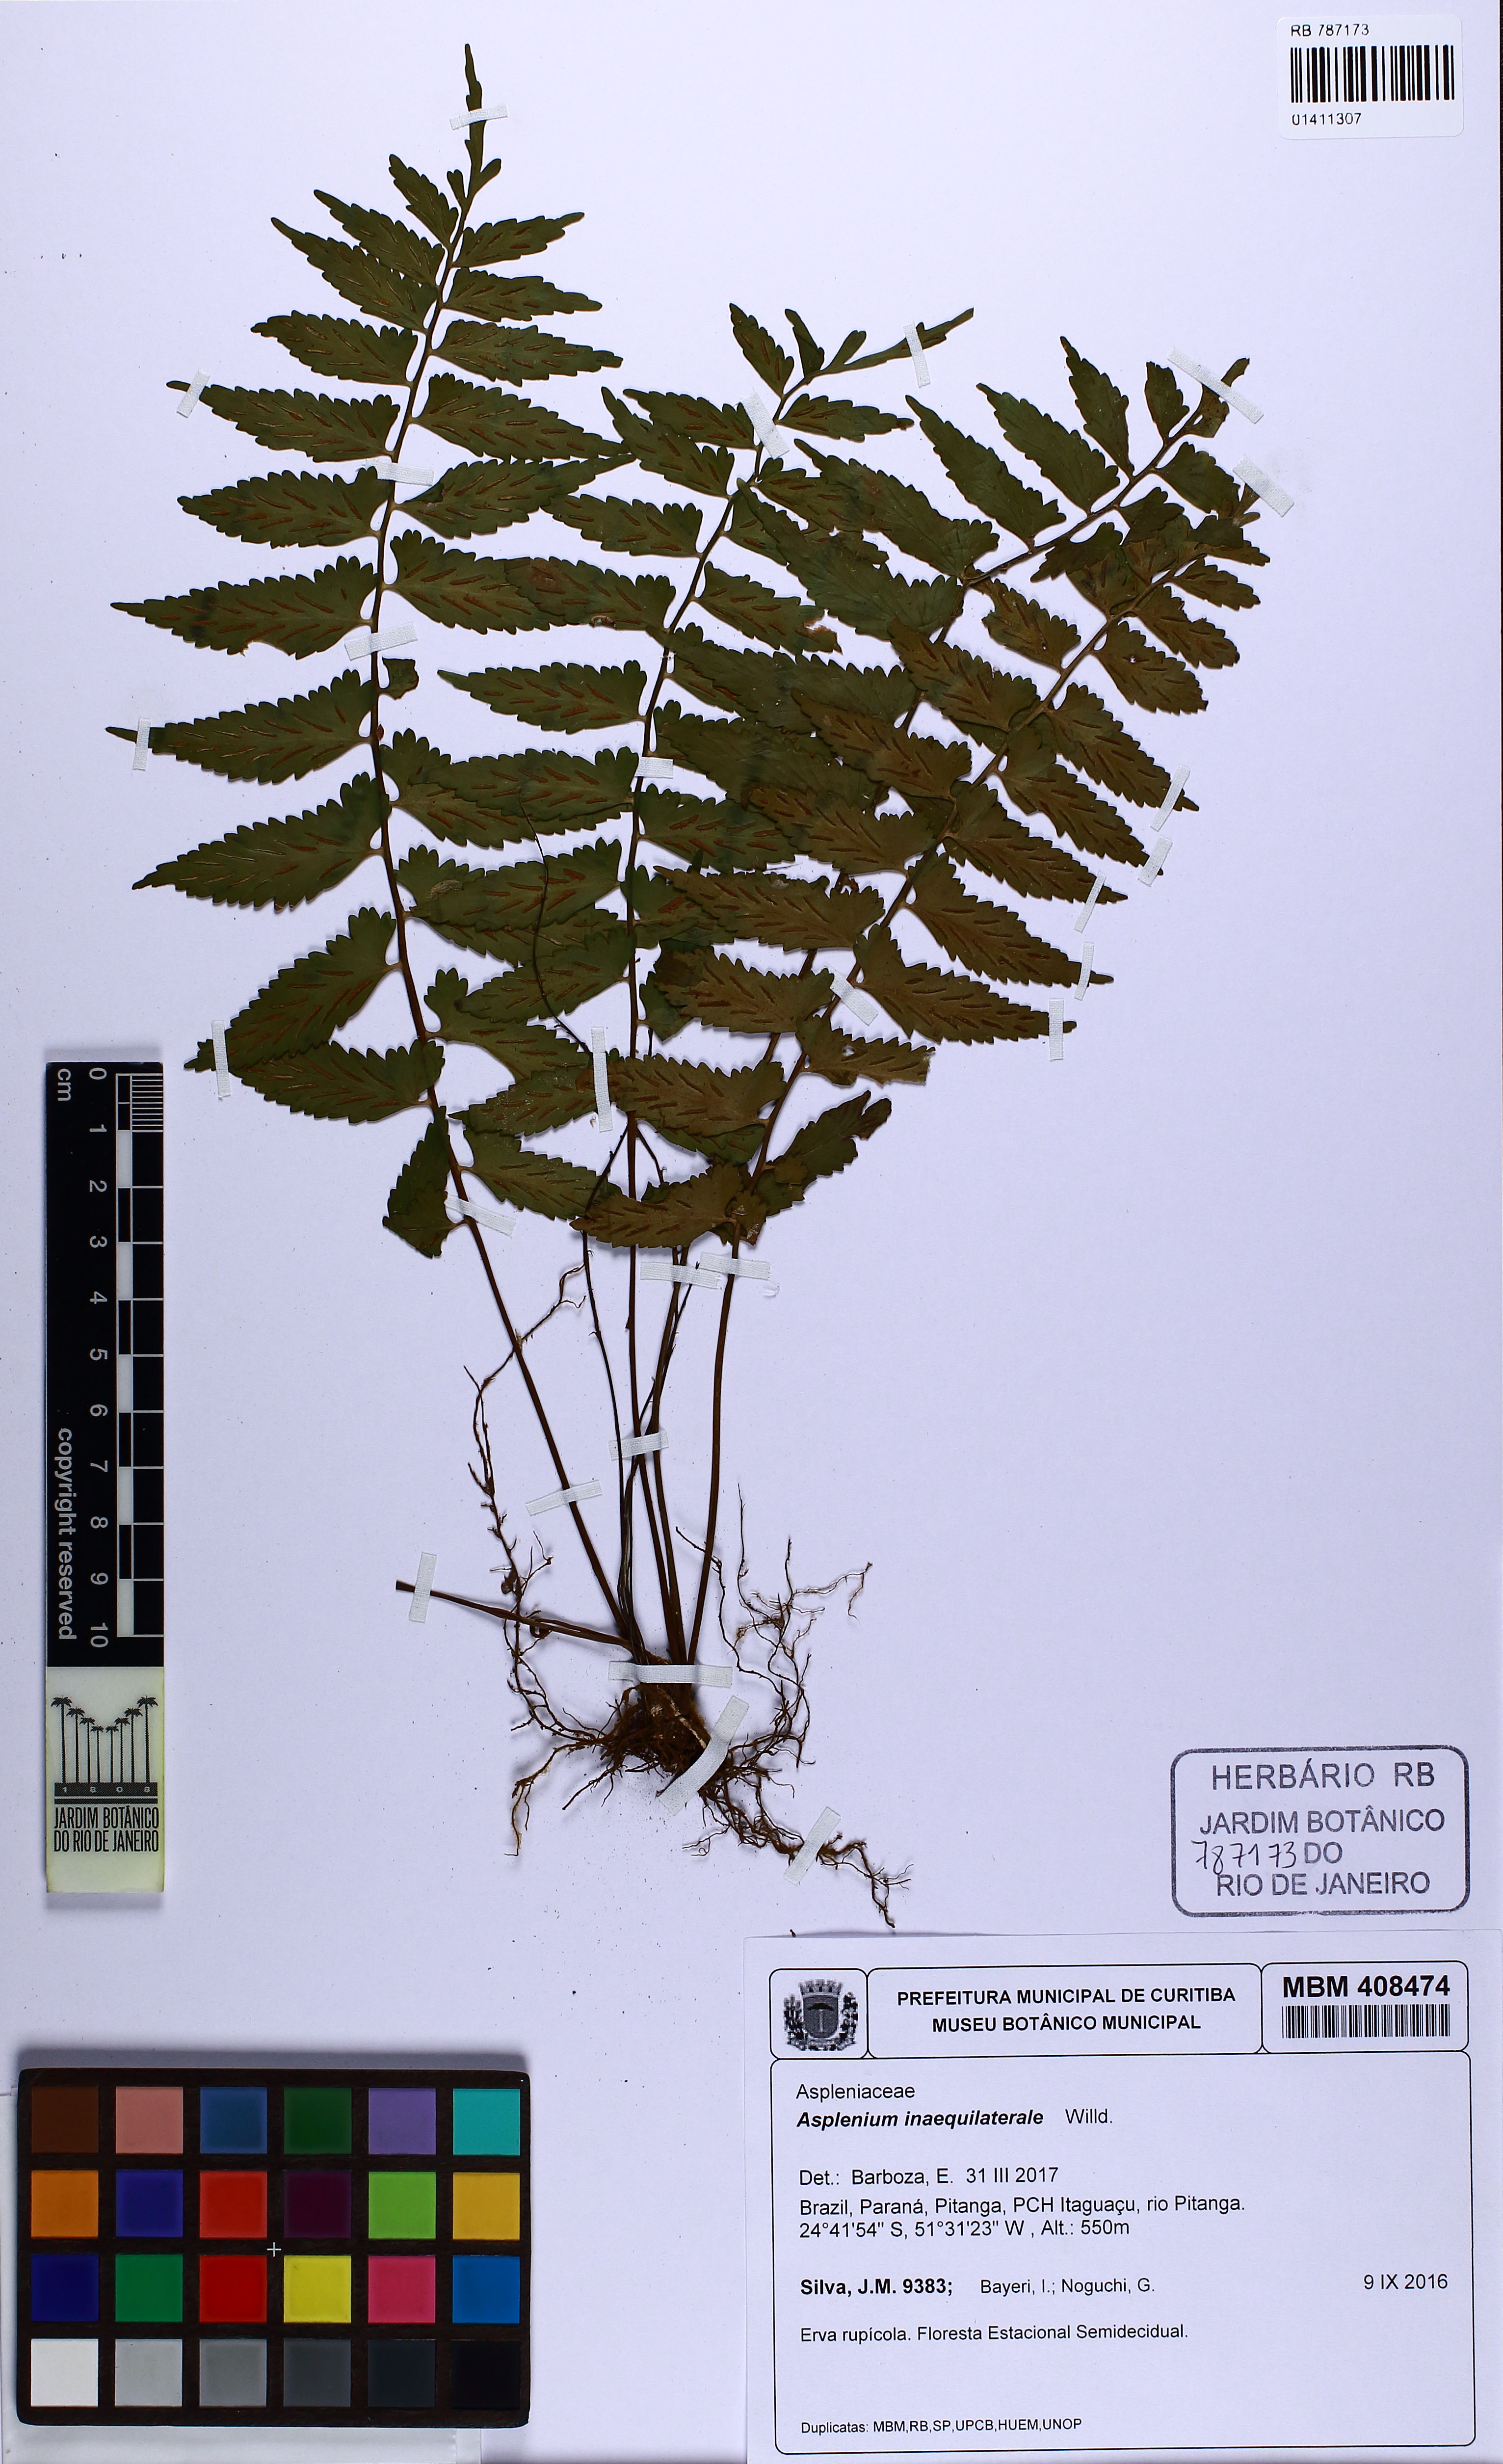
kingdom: Plantae
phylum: Tracheophyta
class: Polypodiopsida
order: Polypodiales
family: Aspleniaceae
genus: Asplenium
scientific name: Asplenium auriculatum
